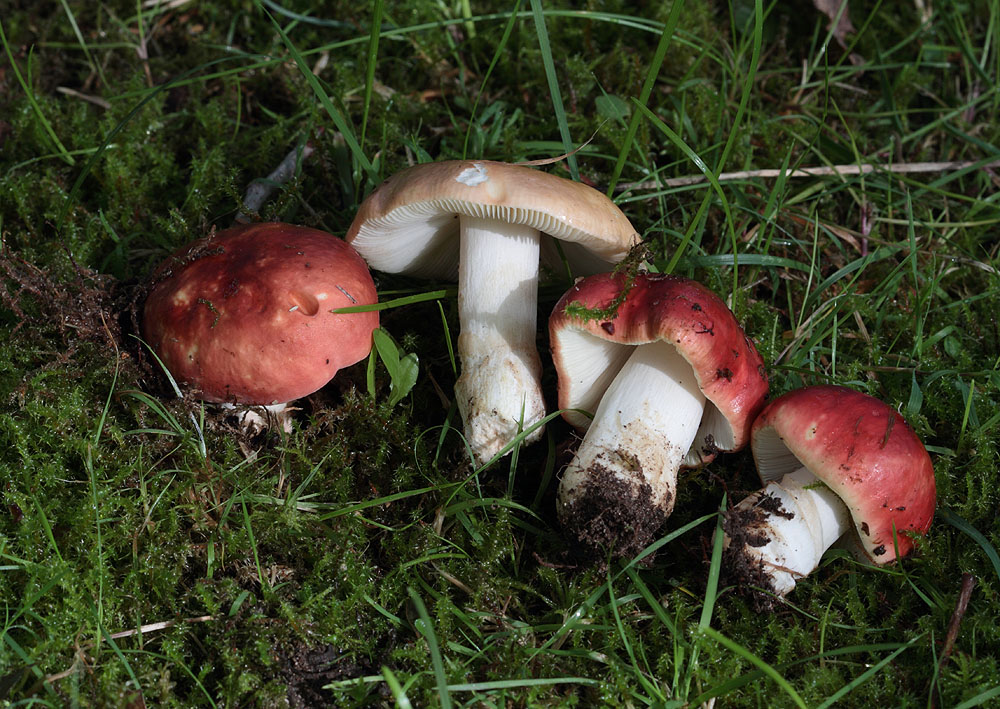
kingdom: Fungi
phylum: Basidiomycota
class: Agaricomycetes
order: Russulales
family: Russulaceae
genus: Russula
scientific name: Russula xerampelina
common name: hummer-skørhat
